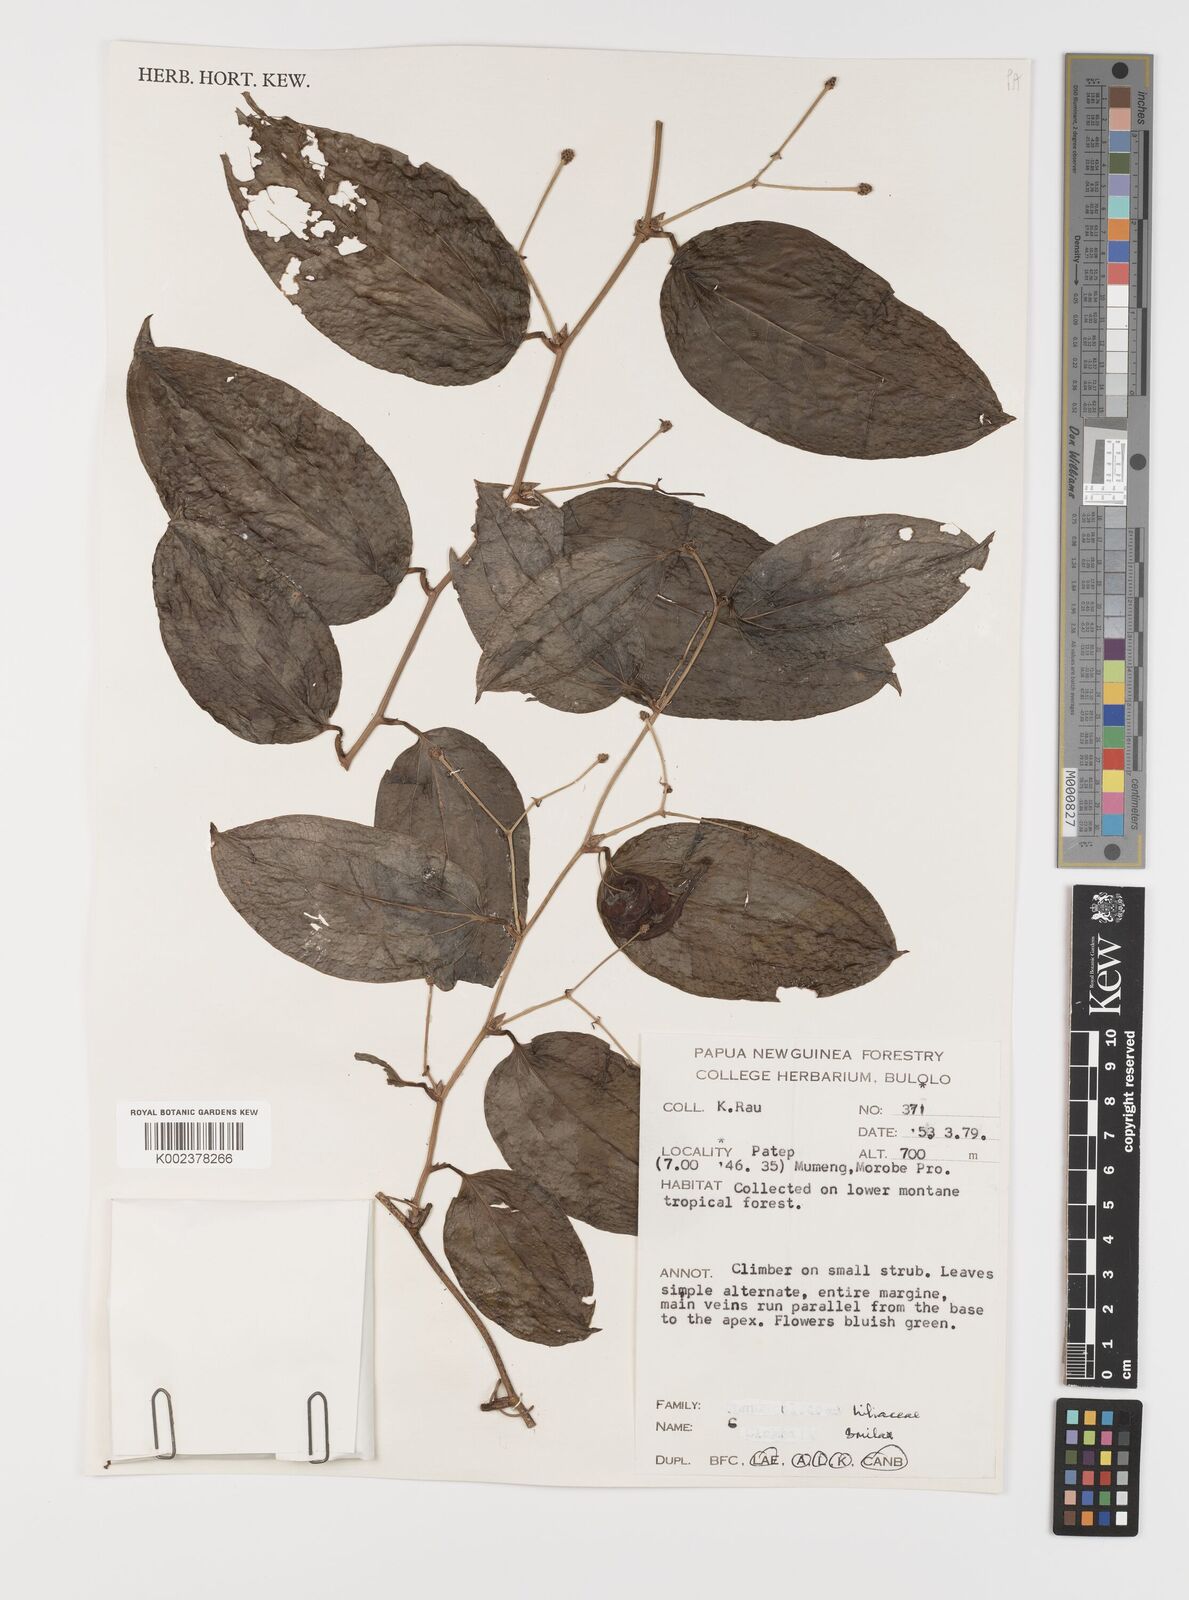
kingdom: Plantae
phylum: Tracheophyta
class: Liliopsida
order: Liliales
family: Smilacaceae
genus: Smilax
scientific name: Smilax
